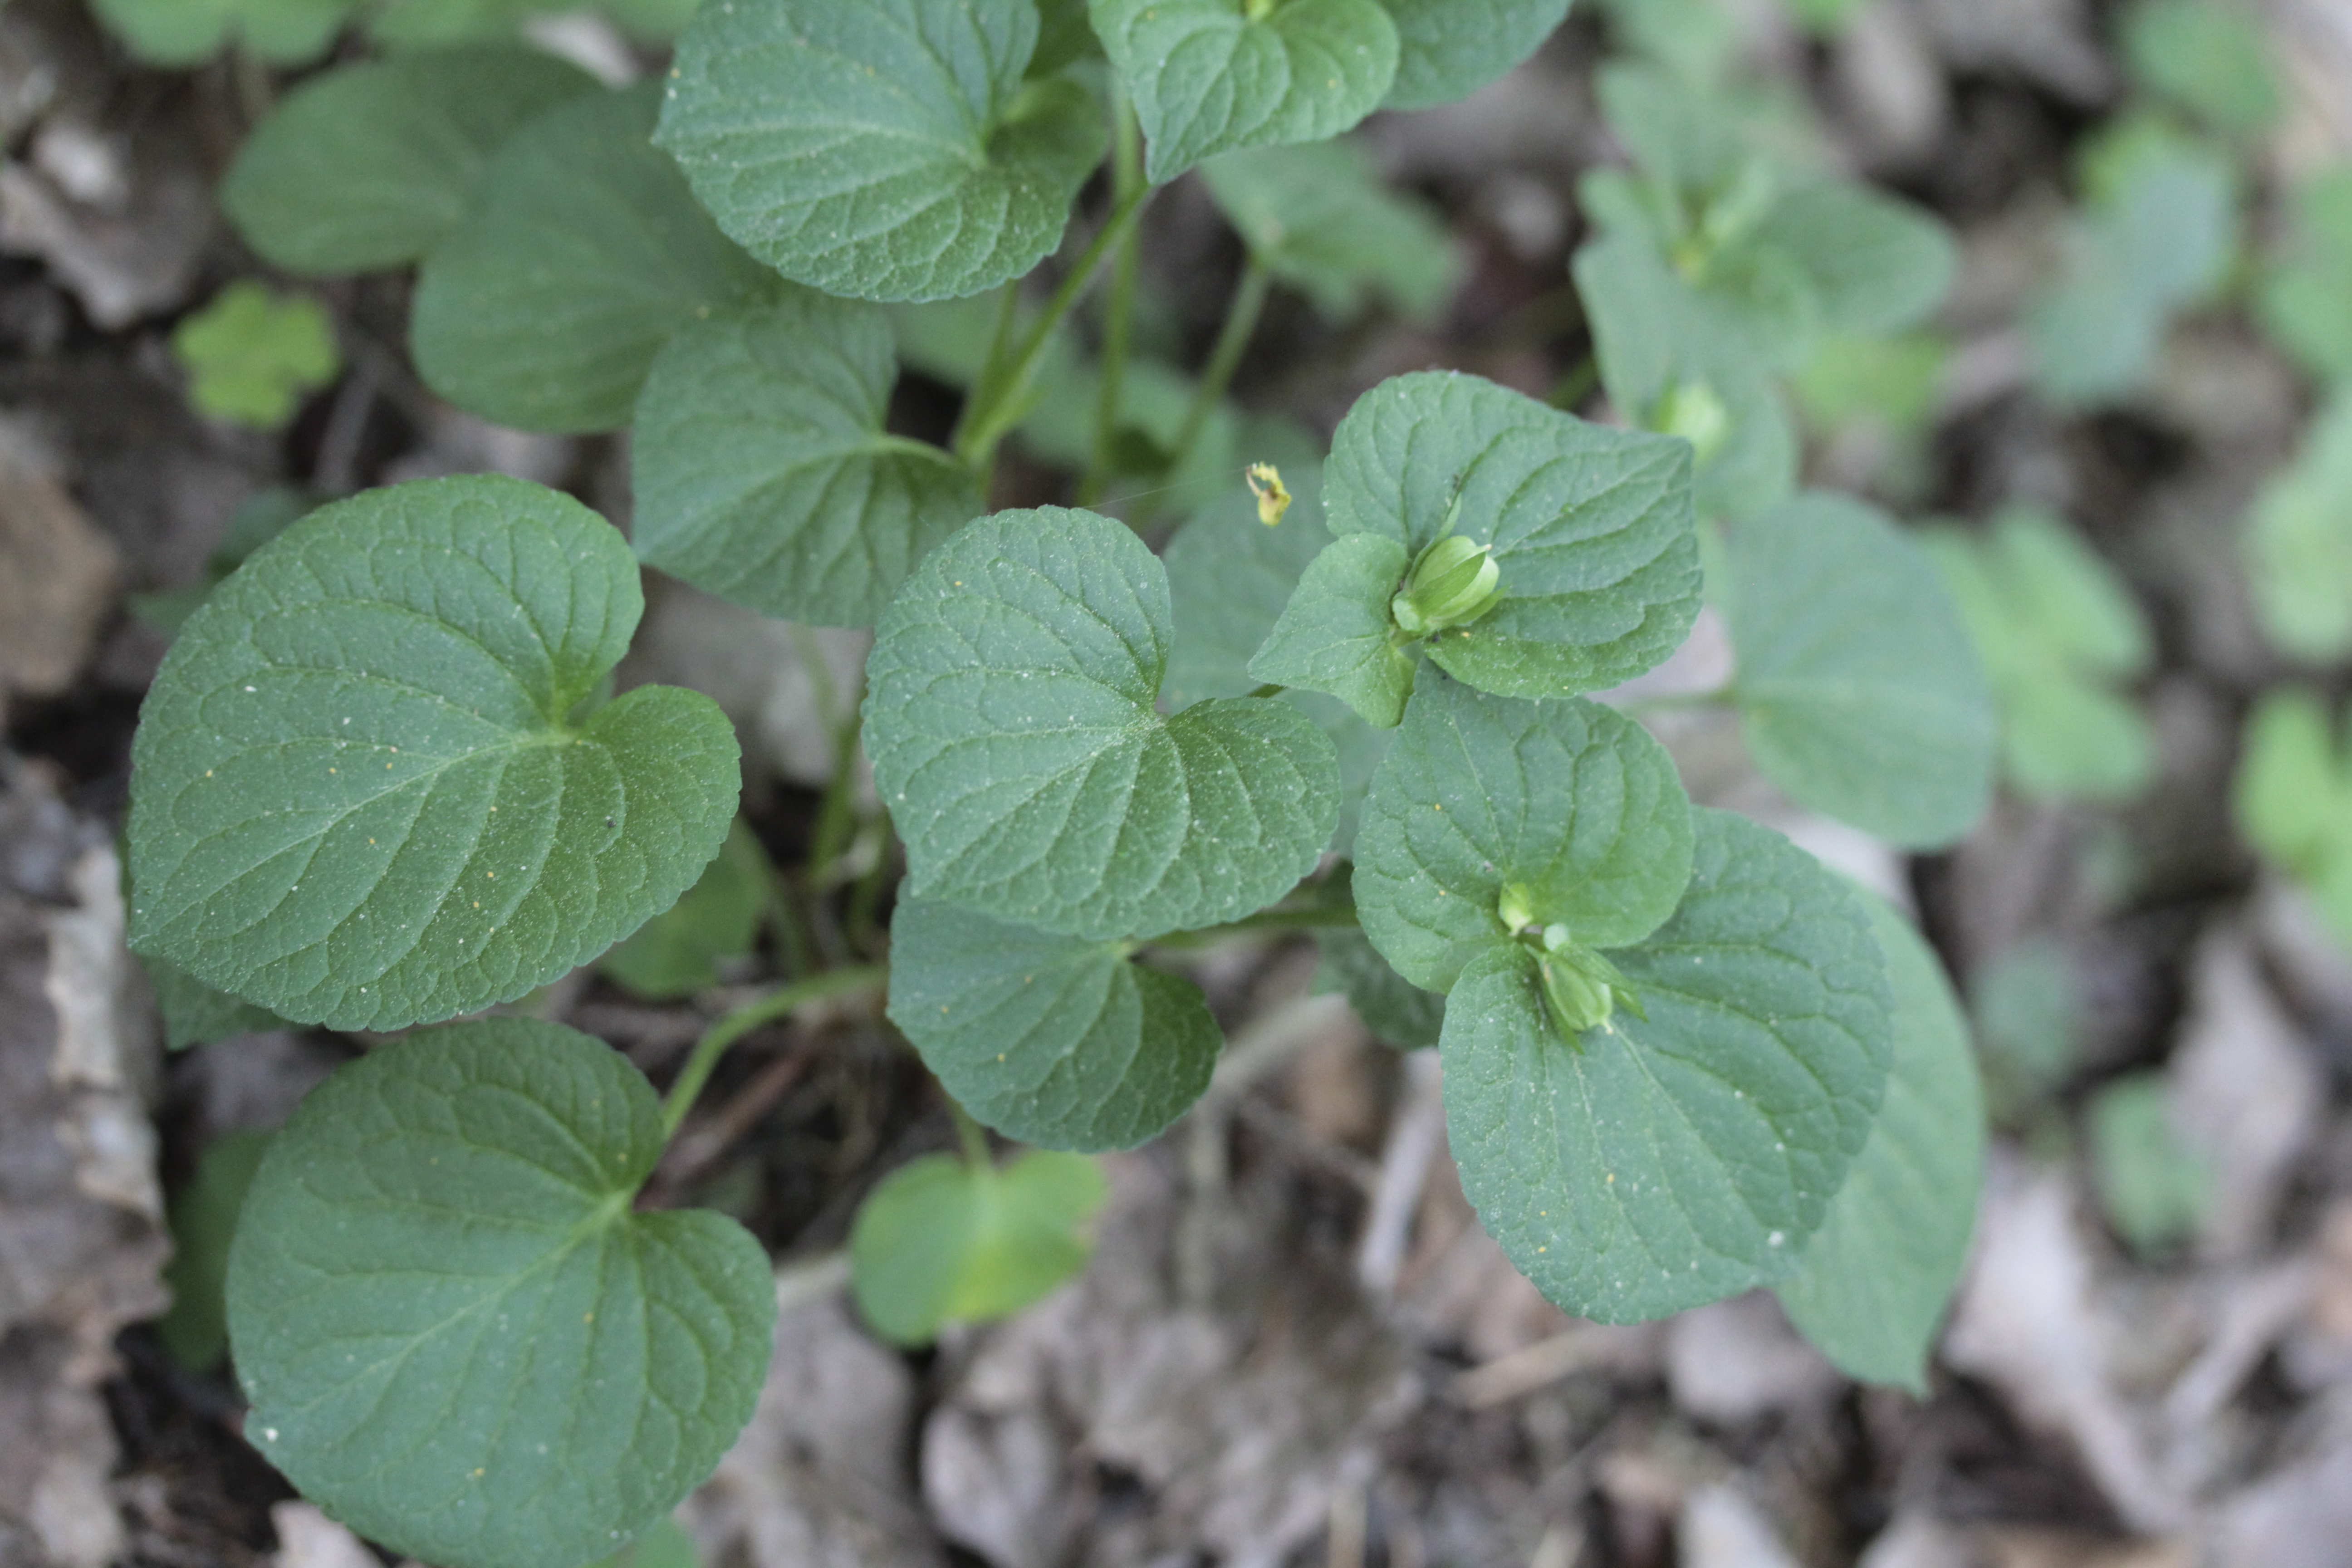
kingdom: Plantae
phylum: Tracheophyta
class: Magnoliopsida
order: Malpighiales
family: Violaceae
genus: Viola
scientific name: Viola mirabilis
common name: Wonder violet
